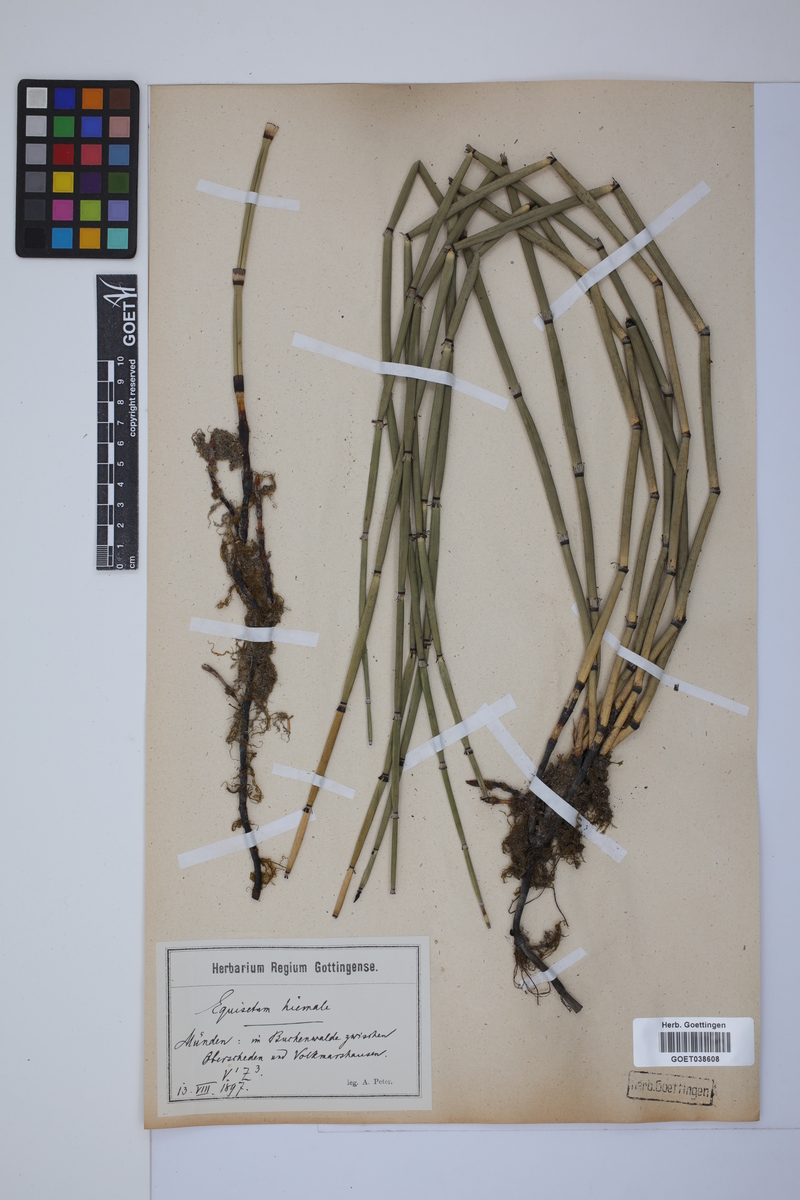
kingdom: Plantae
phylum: Tracheophyta
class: Polypodiopsida
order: Equisetales
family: Equisetaceae
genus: Equisetum
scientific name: Equisetum hyemale
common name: Rough horsetail
